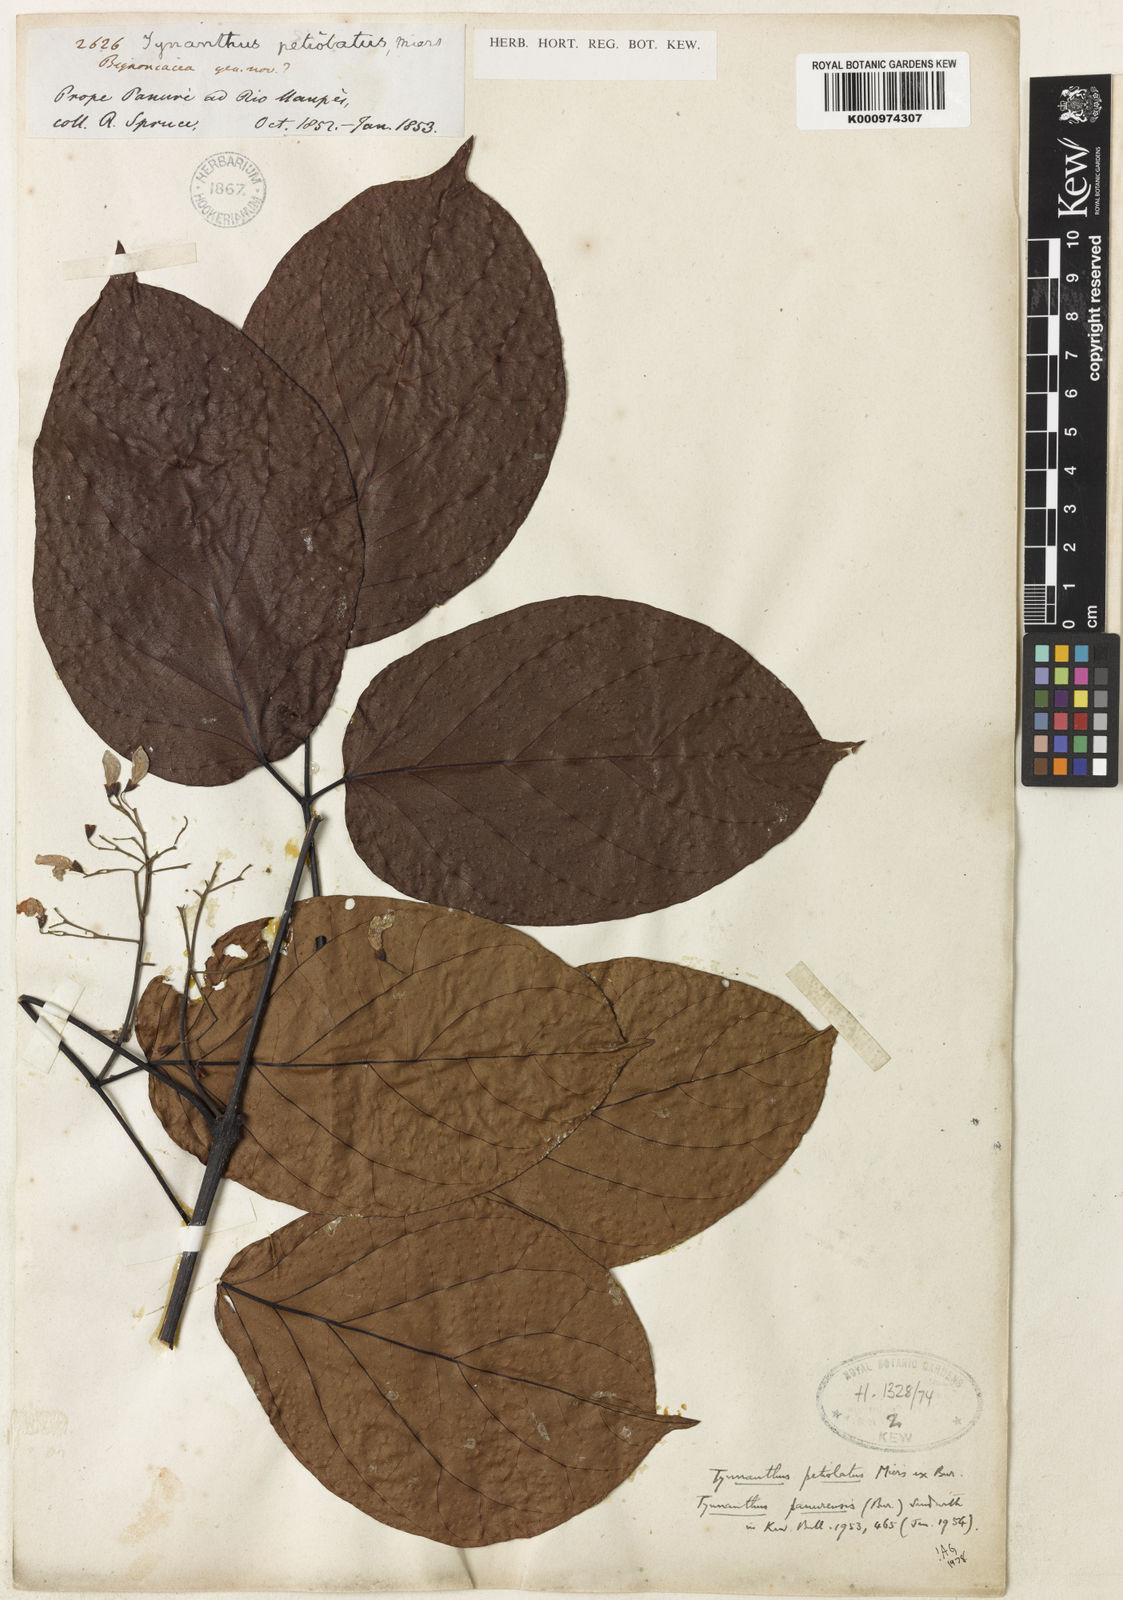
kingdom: Plantae
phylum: Tracheophyta
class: Magnoliopsida
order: Lamiales
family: Bignoniaceae
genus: Tynanthus
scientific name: Tynanthus panurensis
